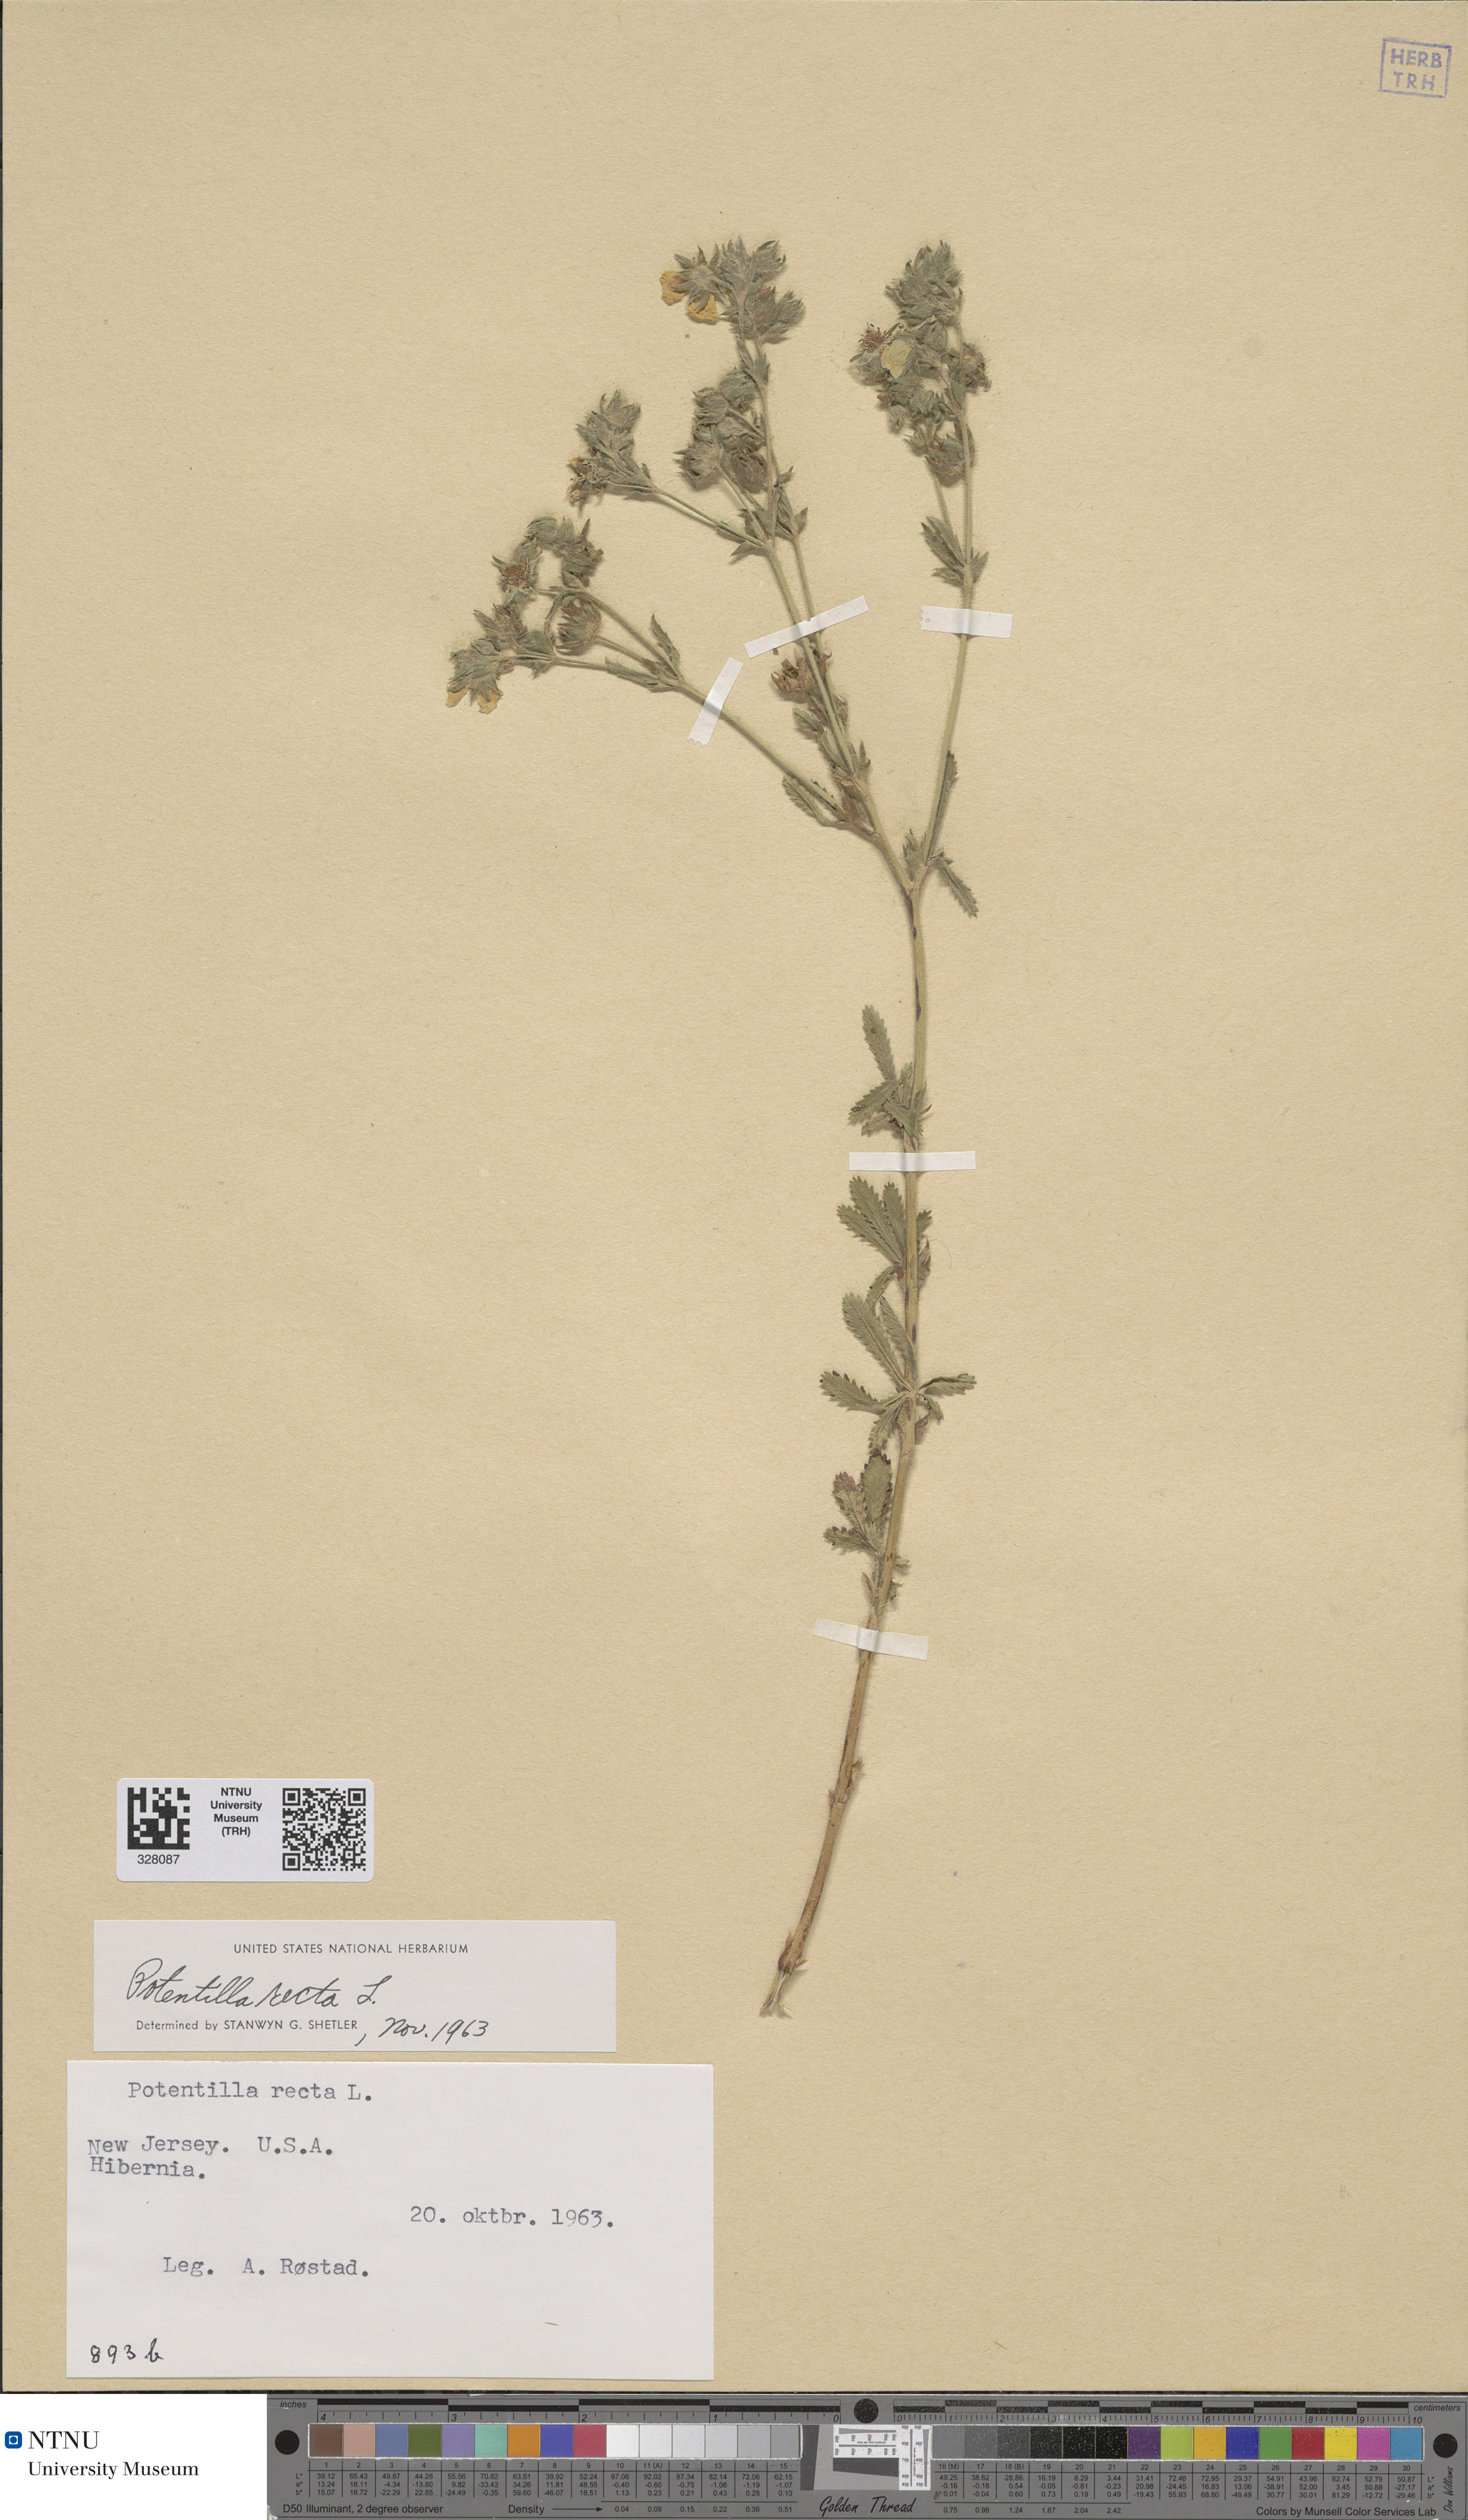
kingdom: Plantae
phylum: Tracheophyta
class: Magnoliopsida
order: Rosales
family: Rosaceae
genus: Potentilla
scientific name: Potentilla recta
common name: Sulphur cinquefoil
